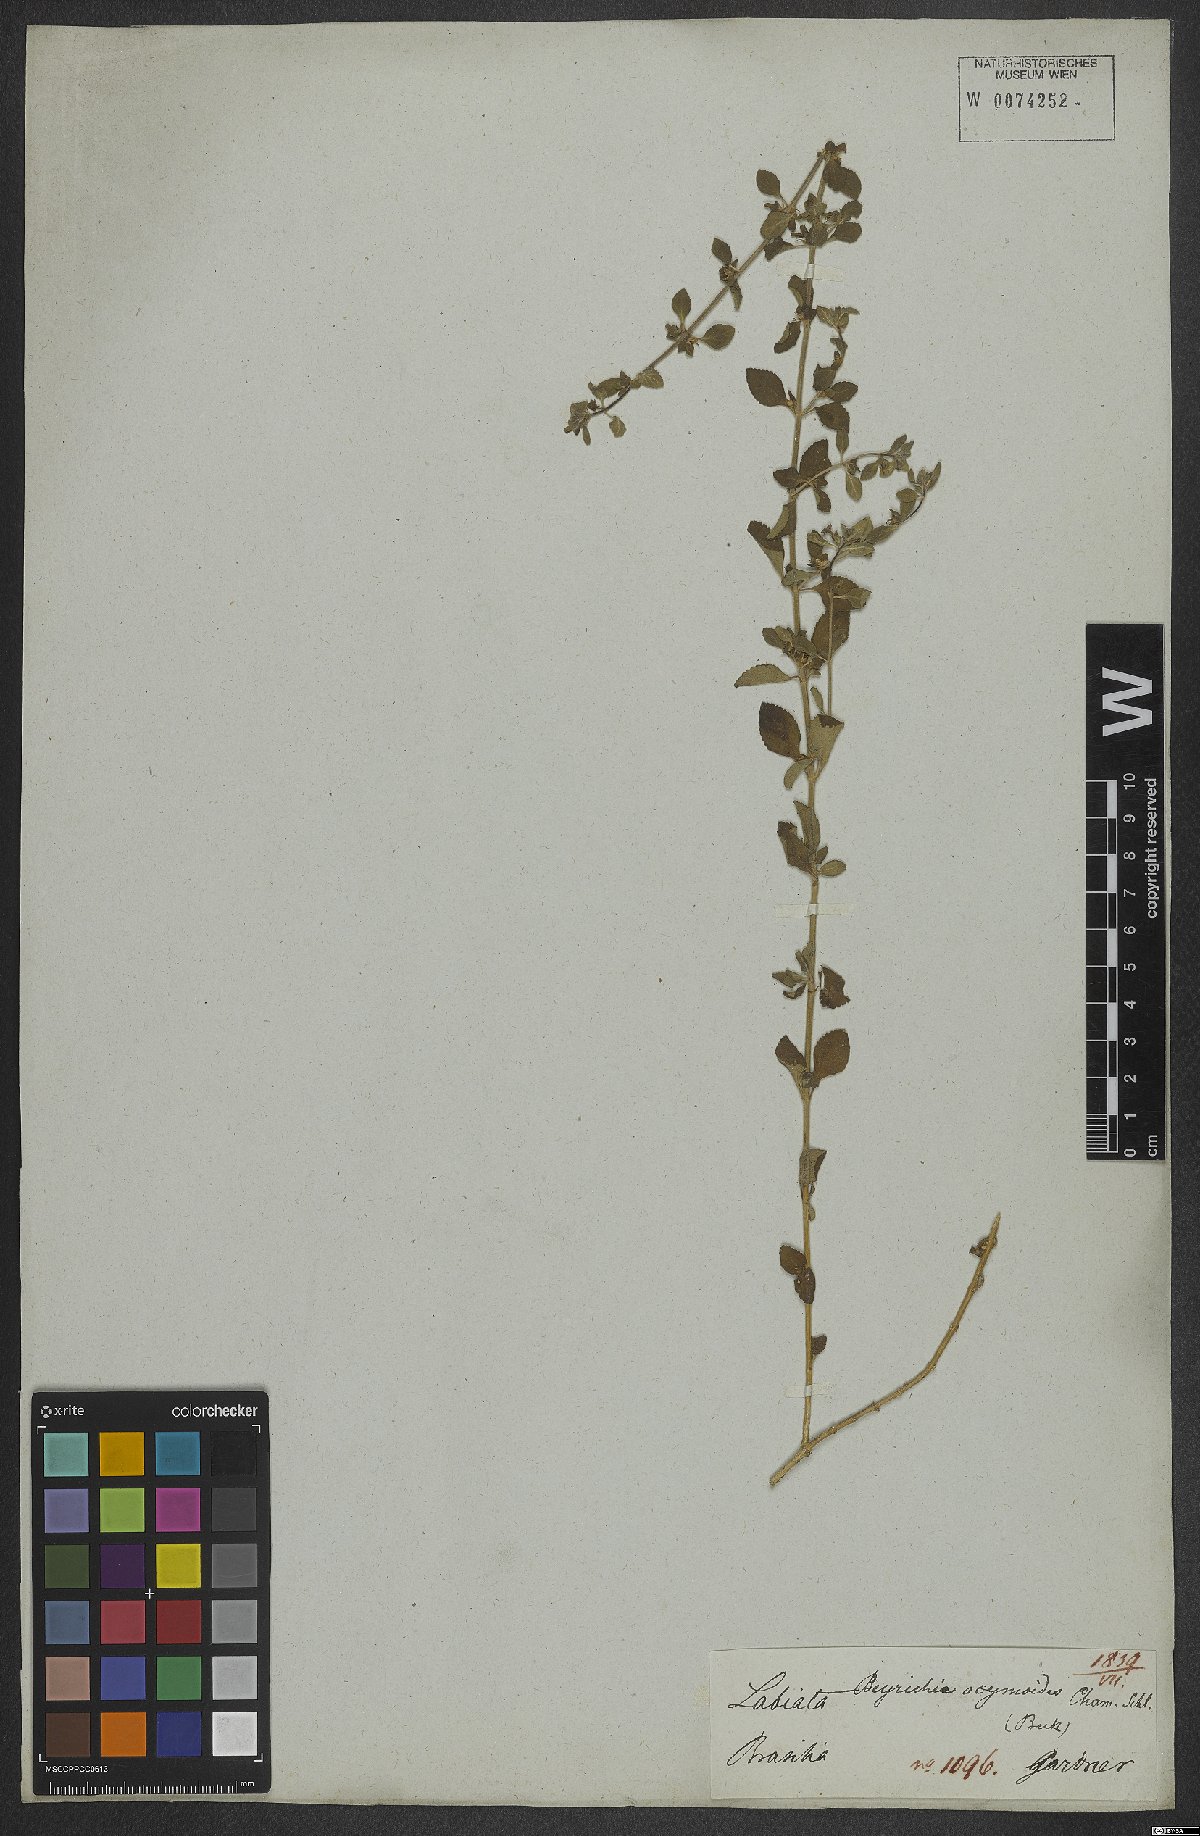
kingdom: Plantae
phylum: Tracheophyta
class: Magnoliopsida
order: Lamiales
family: Plantaginaceae
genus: Matourea
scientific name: Matourea ocymoides
